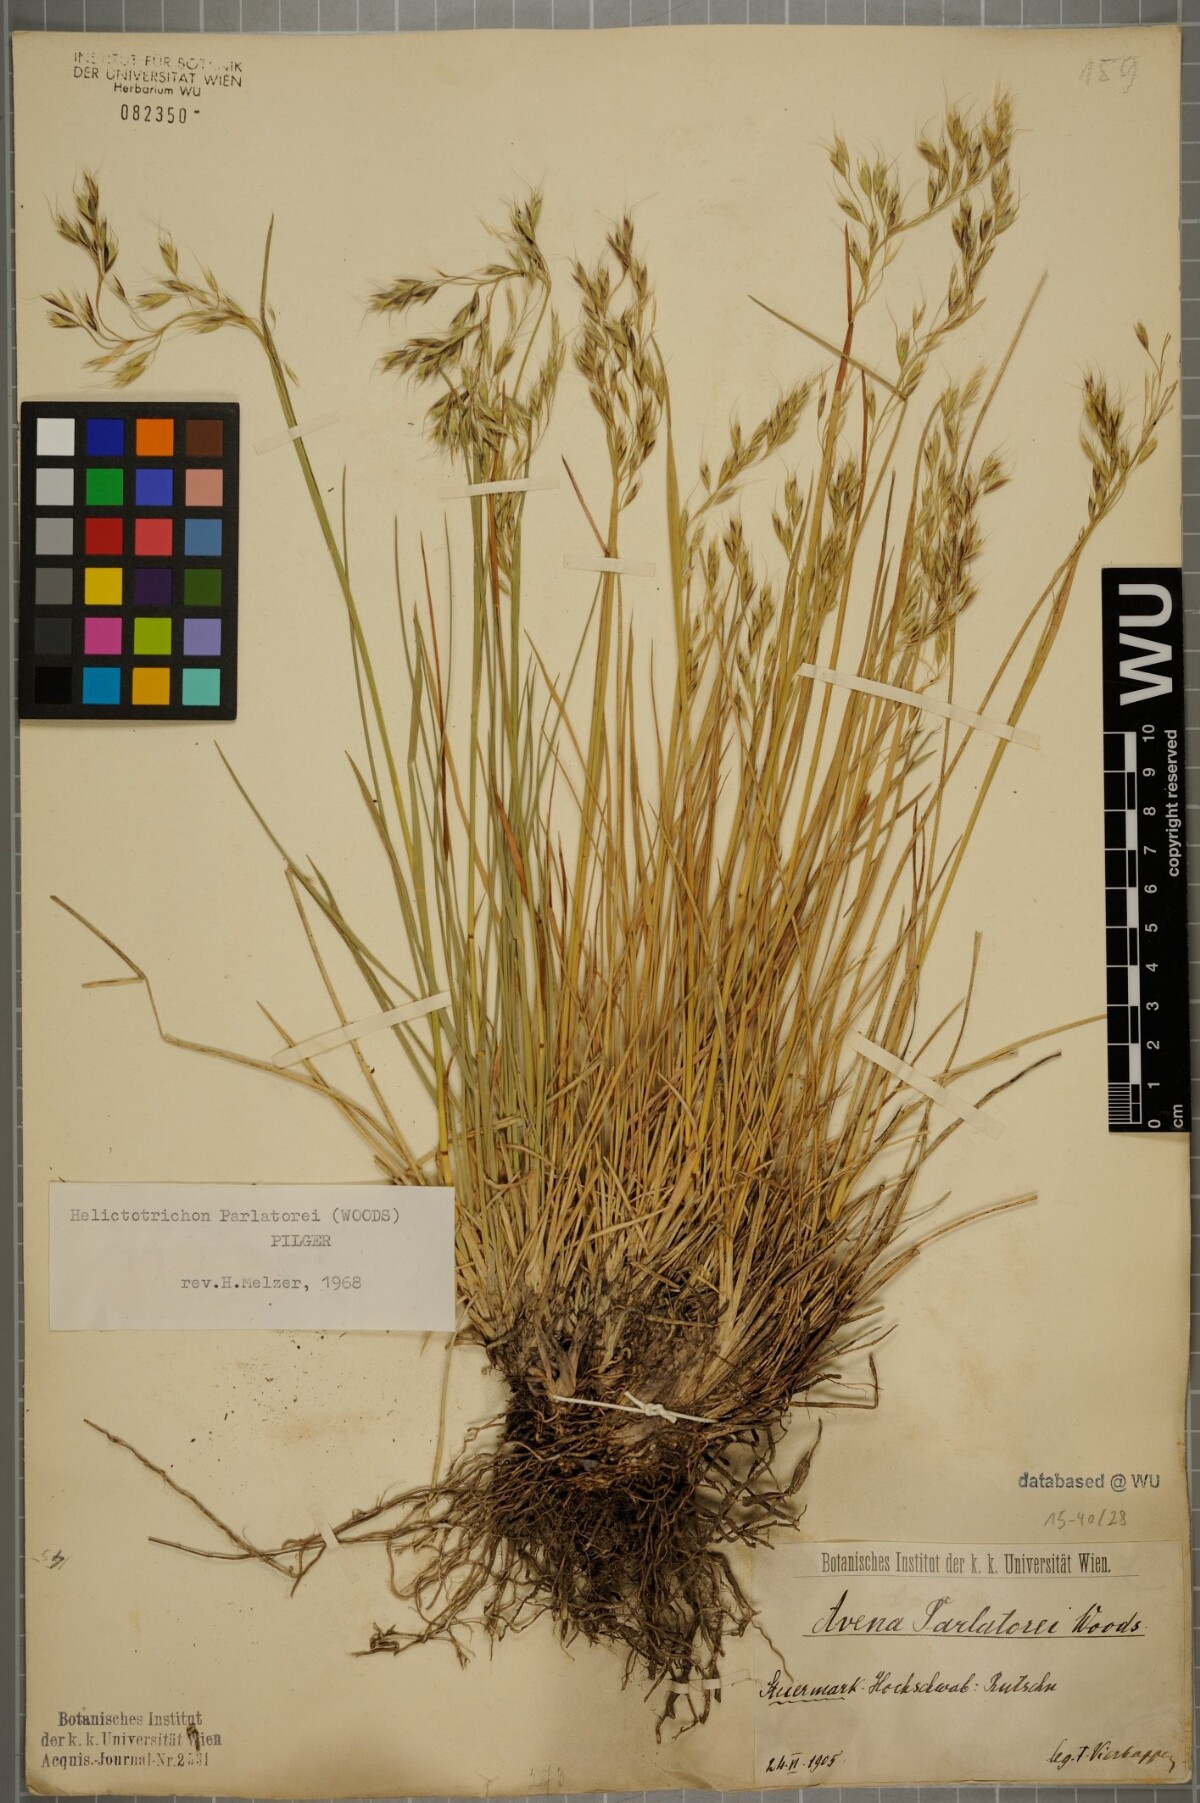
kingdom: Plantae
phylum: Tracheophyta
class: Liliopsida
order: Poales
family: Poaceae
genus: Helictotrichon
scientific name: Helictotrichon parlatorei
